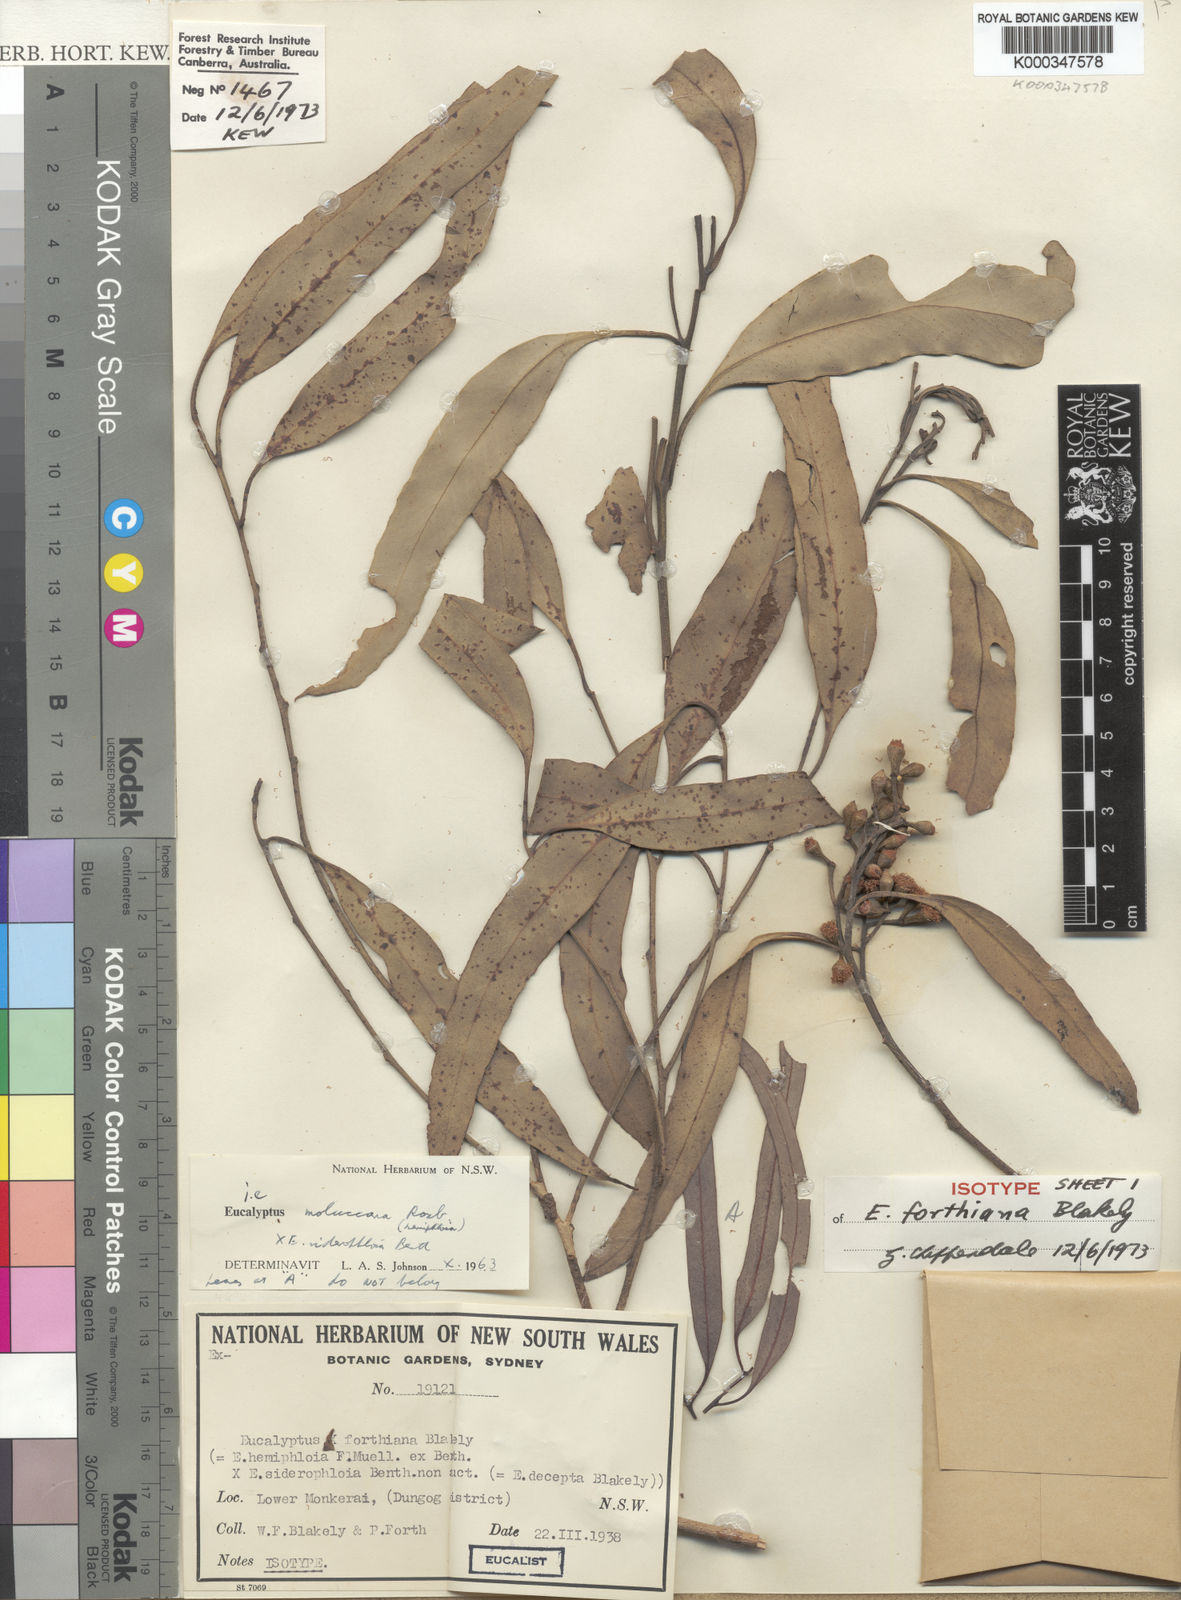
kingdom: Plantae
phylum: Tracheophyta
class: Magnoliopsida
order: Myrtales
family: Myrtaceae
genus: Eucalyptus
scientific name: Eucalyptus moluccana
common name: Grey-box
